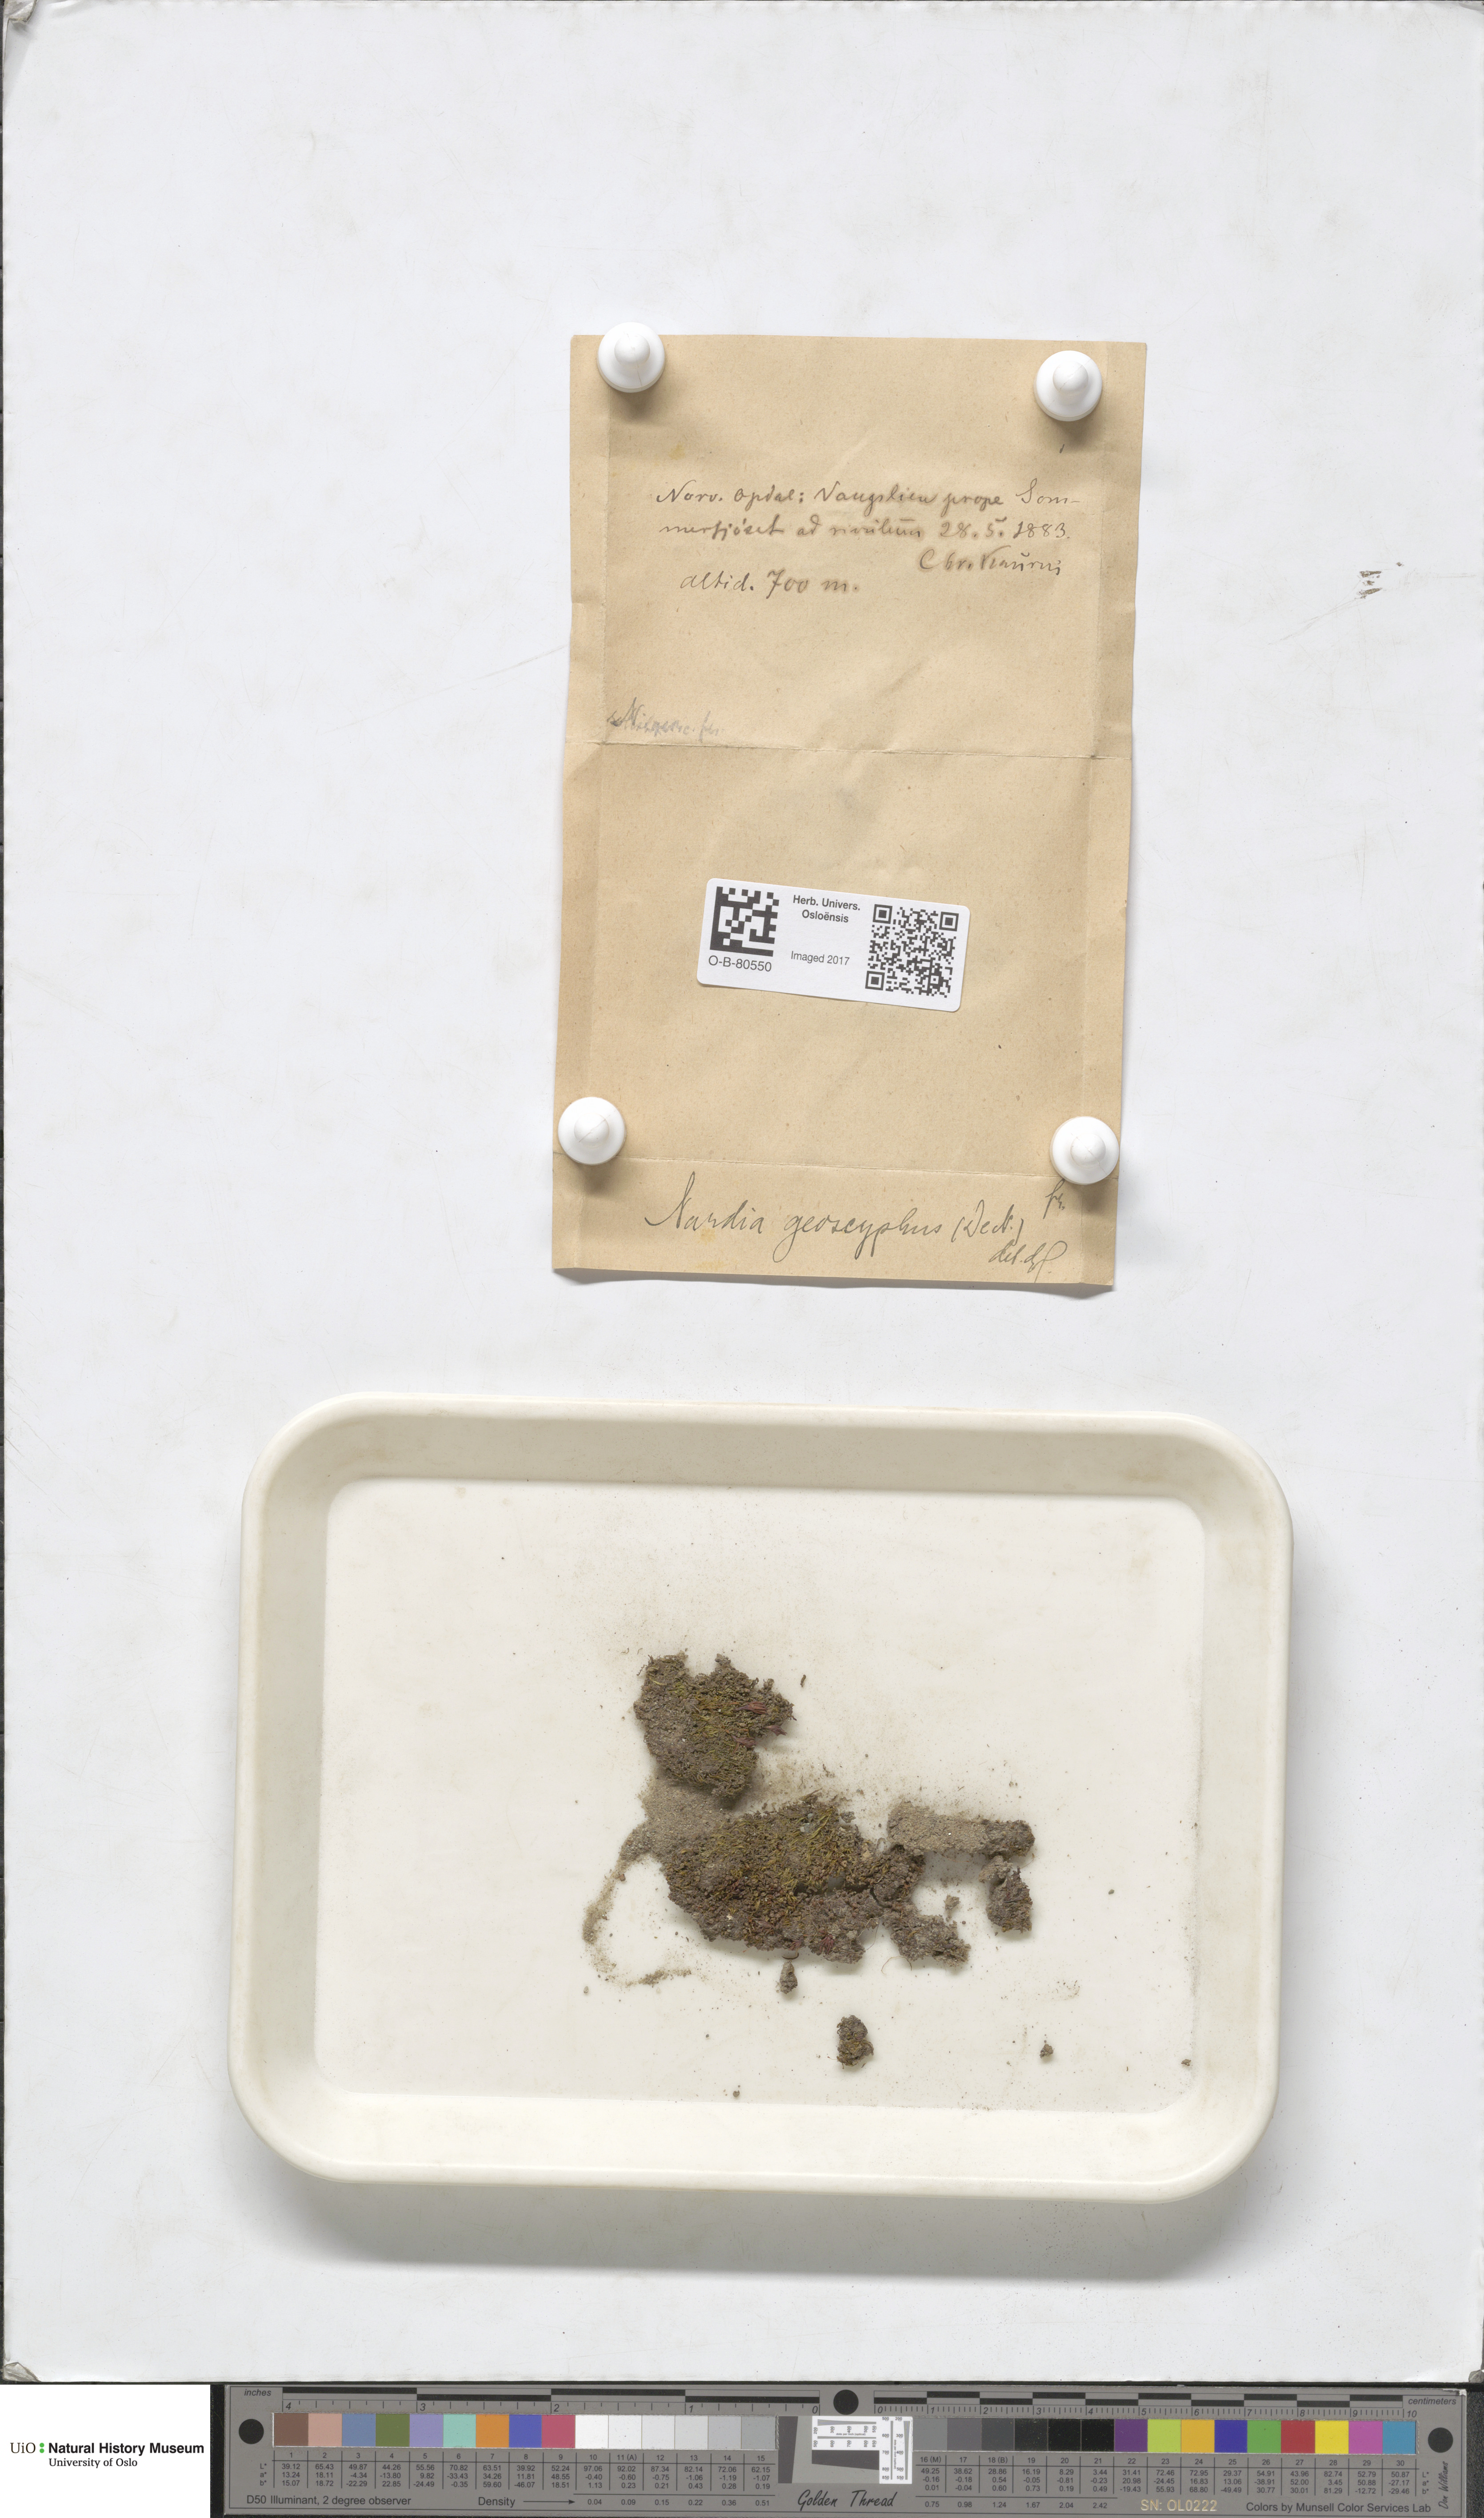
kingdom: Plantae
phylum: Marchantiophyta
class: Jungermanniopsida
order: Jungermanniales
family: Gymnomitriaceae
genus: Nardia
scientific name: Nardia geoscyphus
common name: Earth-cup flapwort
